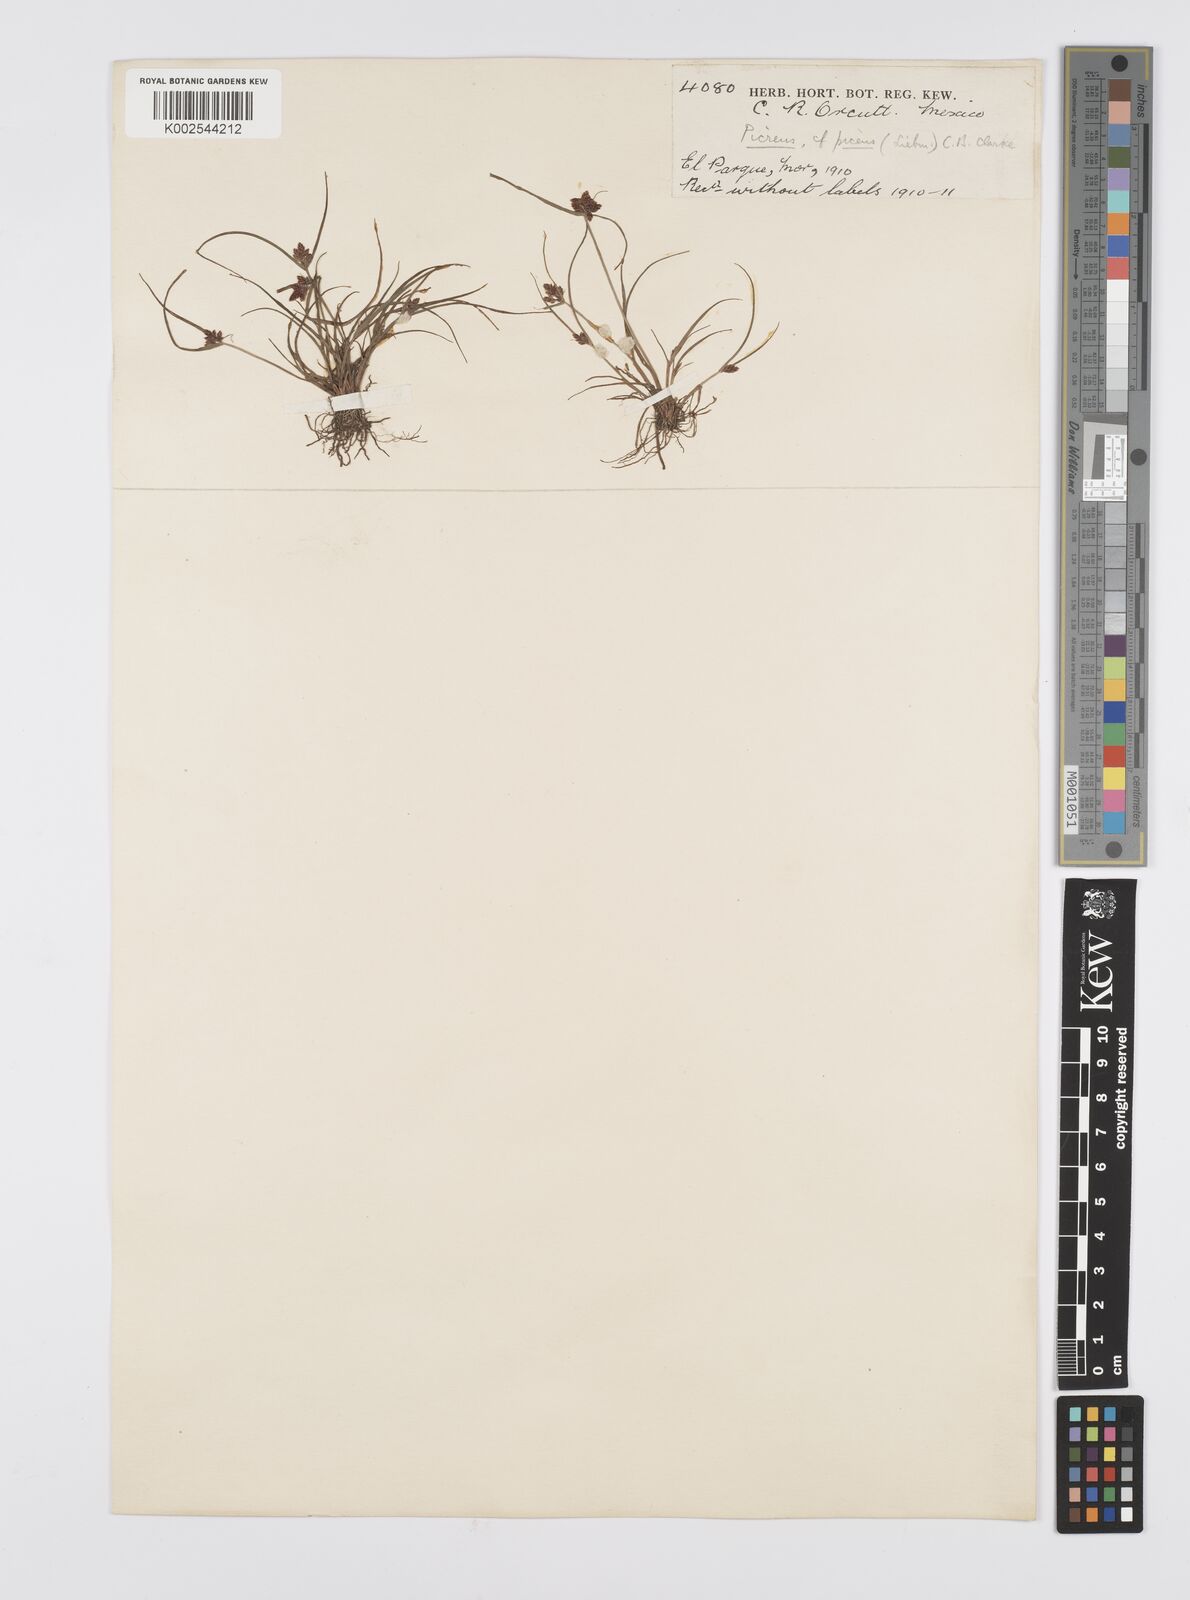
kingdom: Plantae
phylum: Tracheophyta
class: Liliopsida
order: Poales
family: Cyperaceae
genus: Cyperus
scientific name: Cyperus flavescens
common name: Yellow galingale
